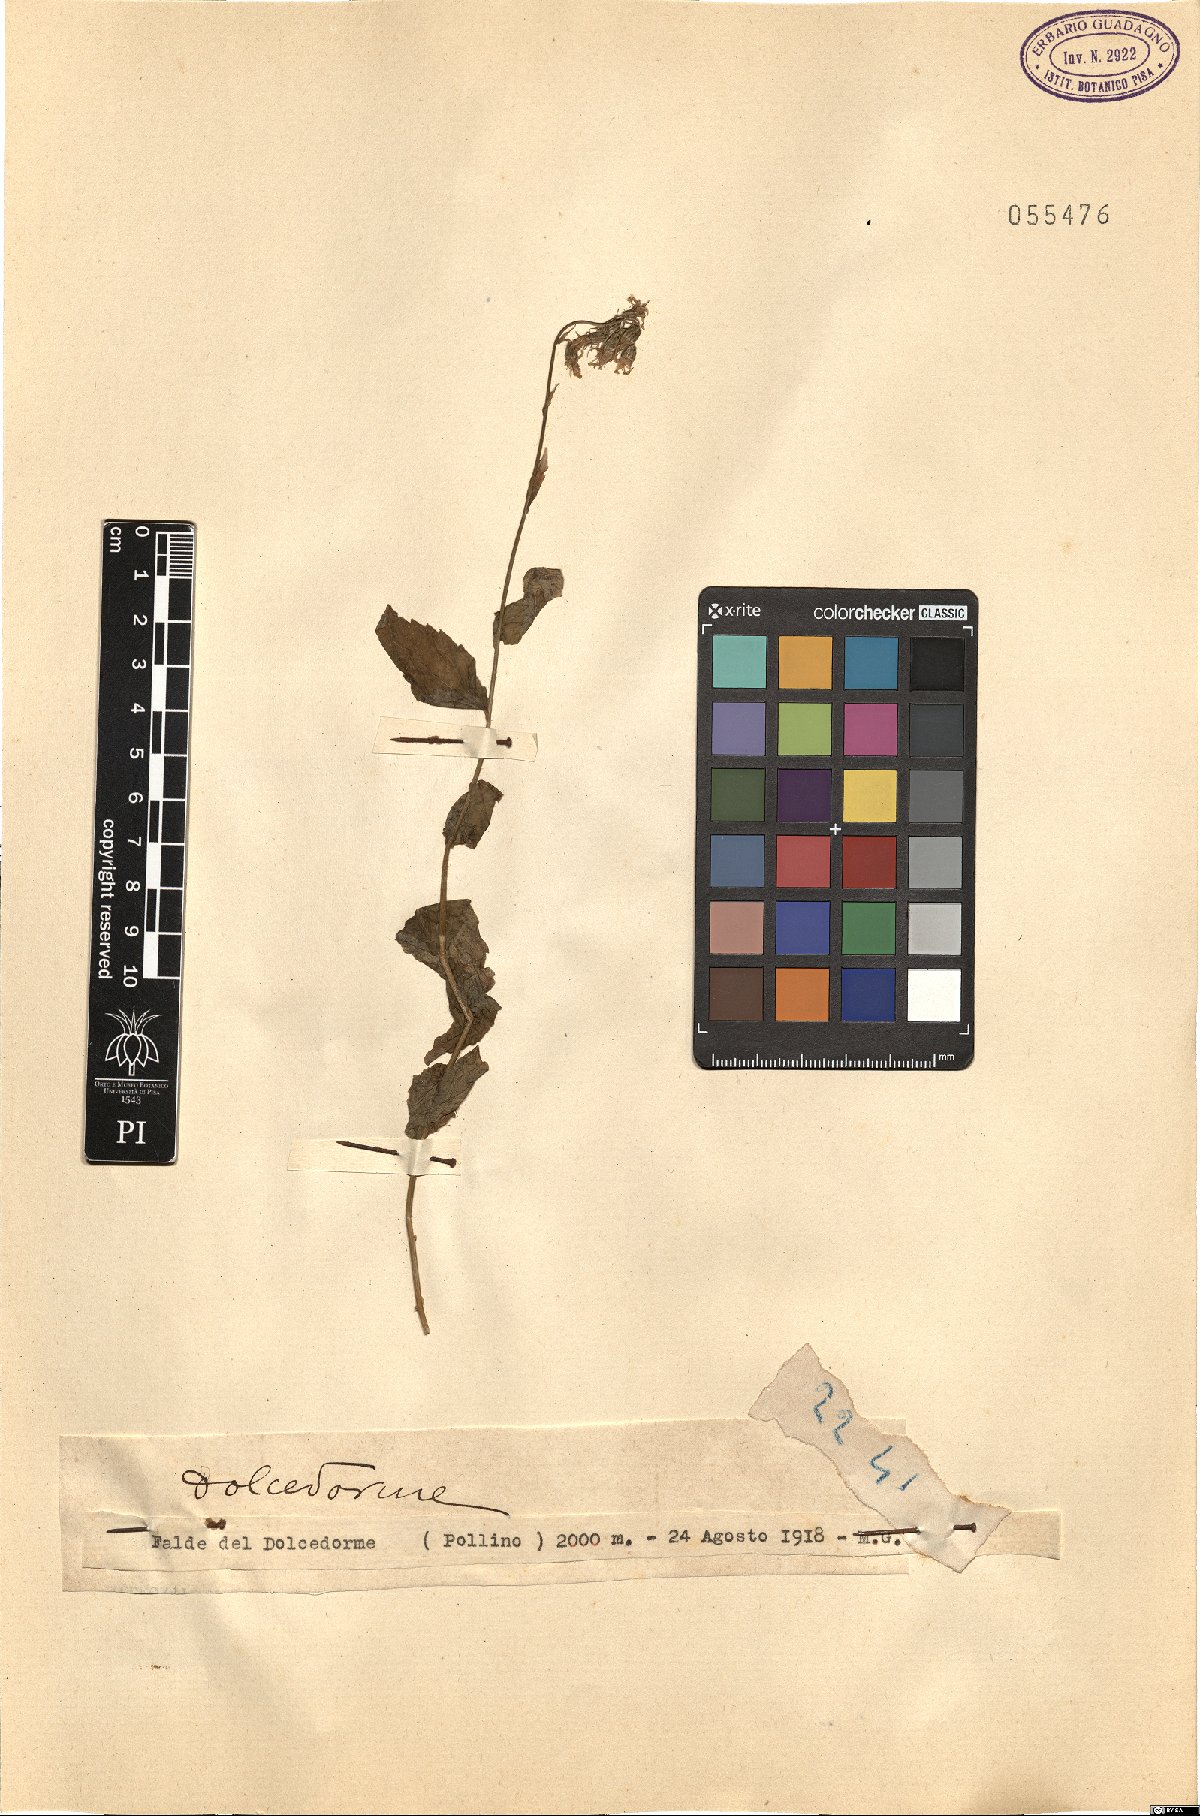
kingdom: Plantae
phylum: Tracheophyta
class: Magnoliopsida
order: Asterales
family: Campanulaceae
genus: Campanula
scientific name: Campanula
